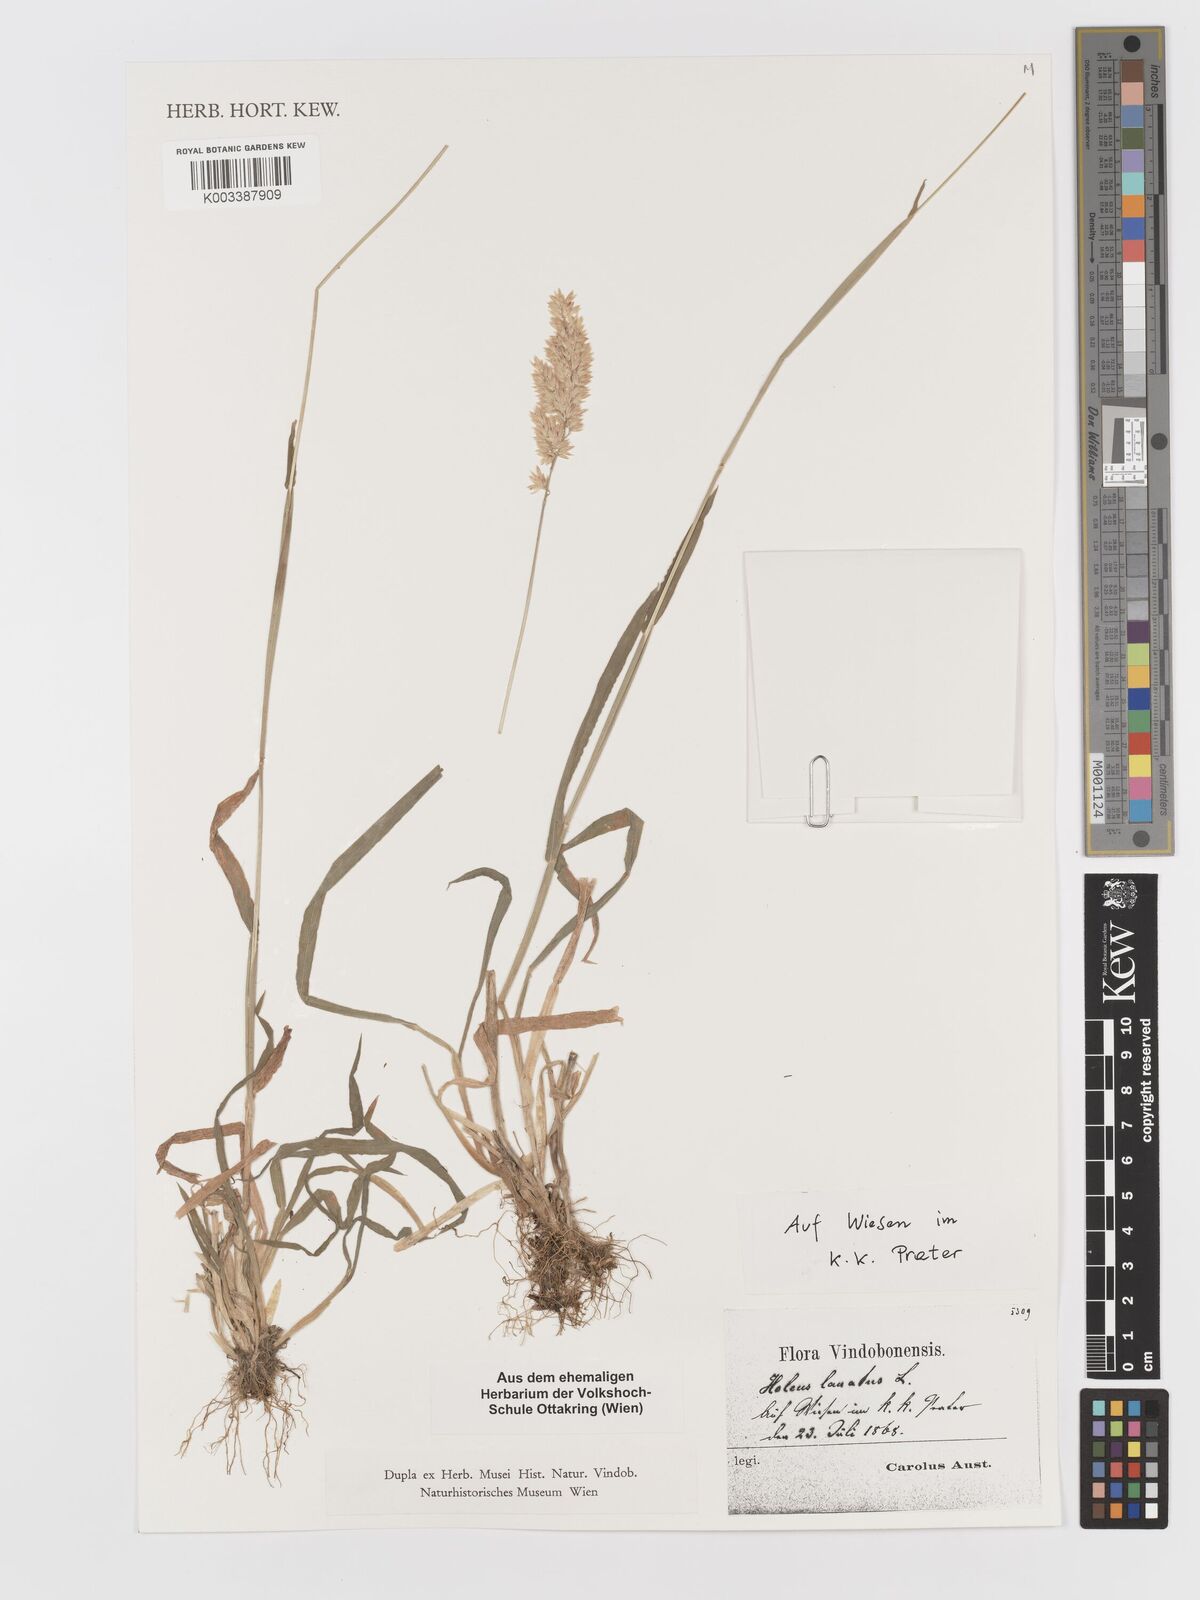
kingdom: Plantae
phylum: Tracheophyta
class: Liliopsida
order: Poales
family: Poaceae
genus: Holcus
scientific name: Holcus lanatus
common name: Yorkshire-fog
